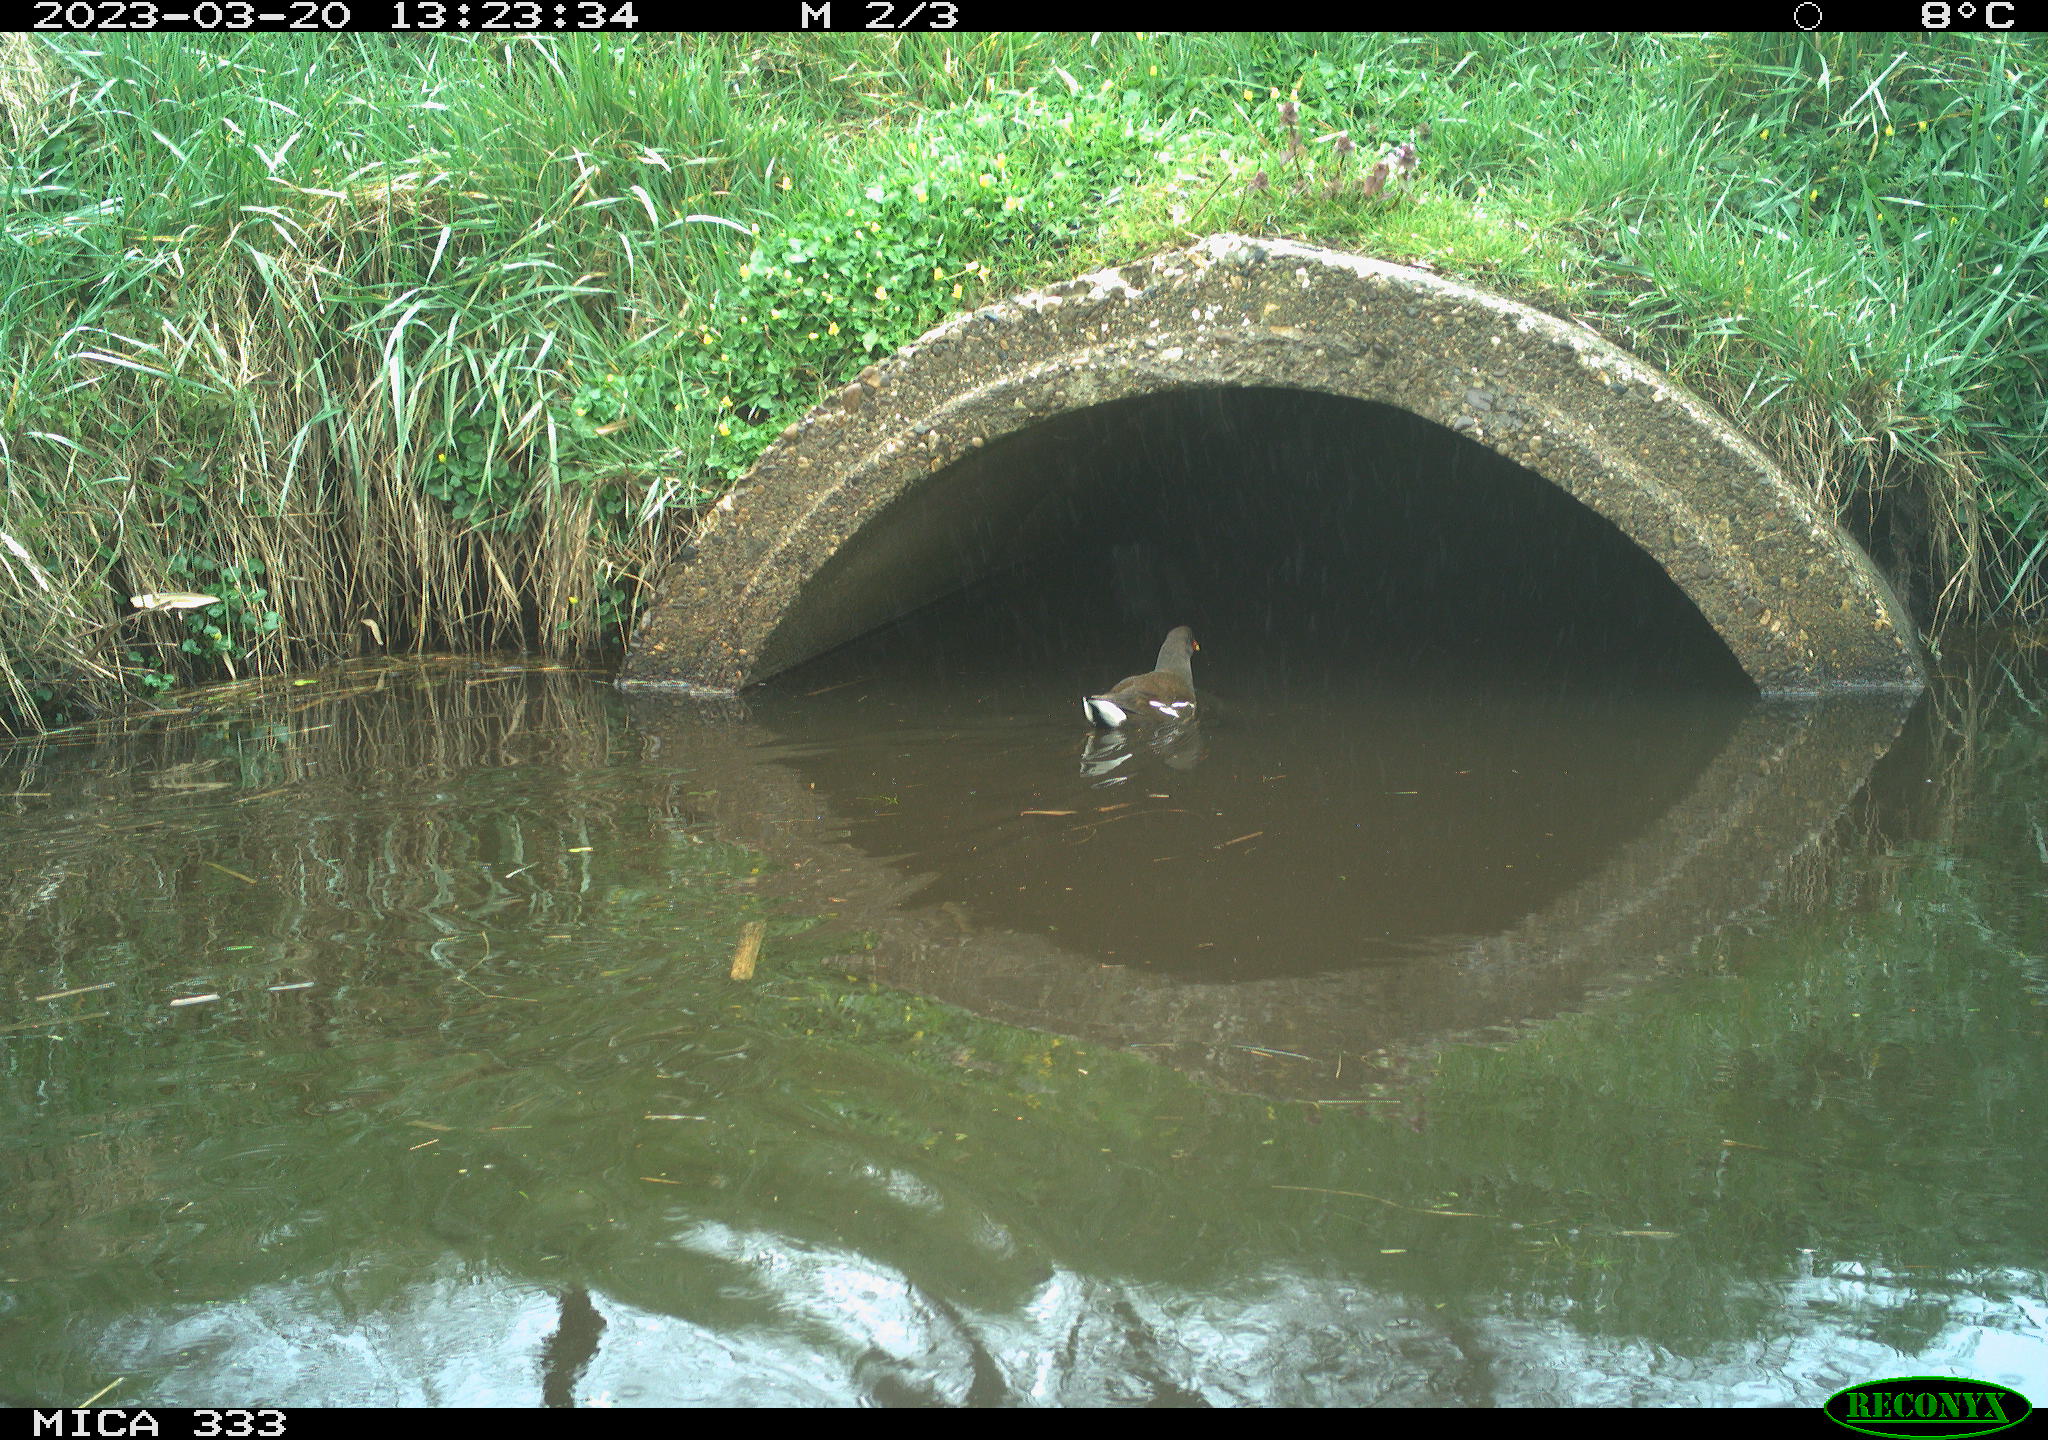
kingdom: Animalia
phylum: Chordata
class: Aves
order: Gruiformes
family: Rallidae
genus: Gallinula
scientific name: Gallinula chloropus
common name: Common moorhen
